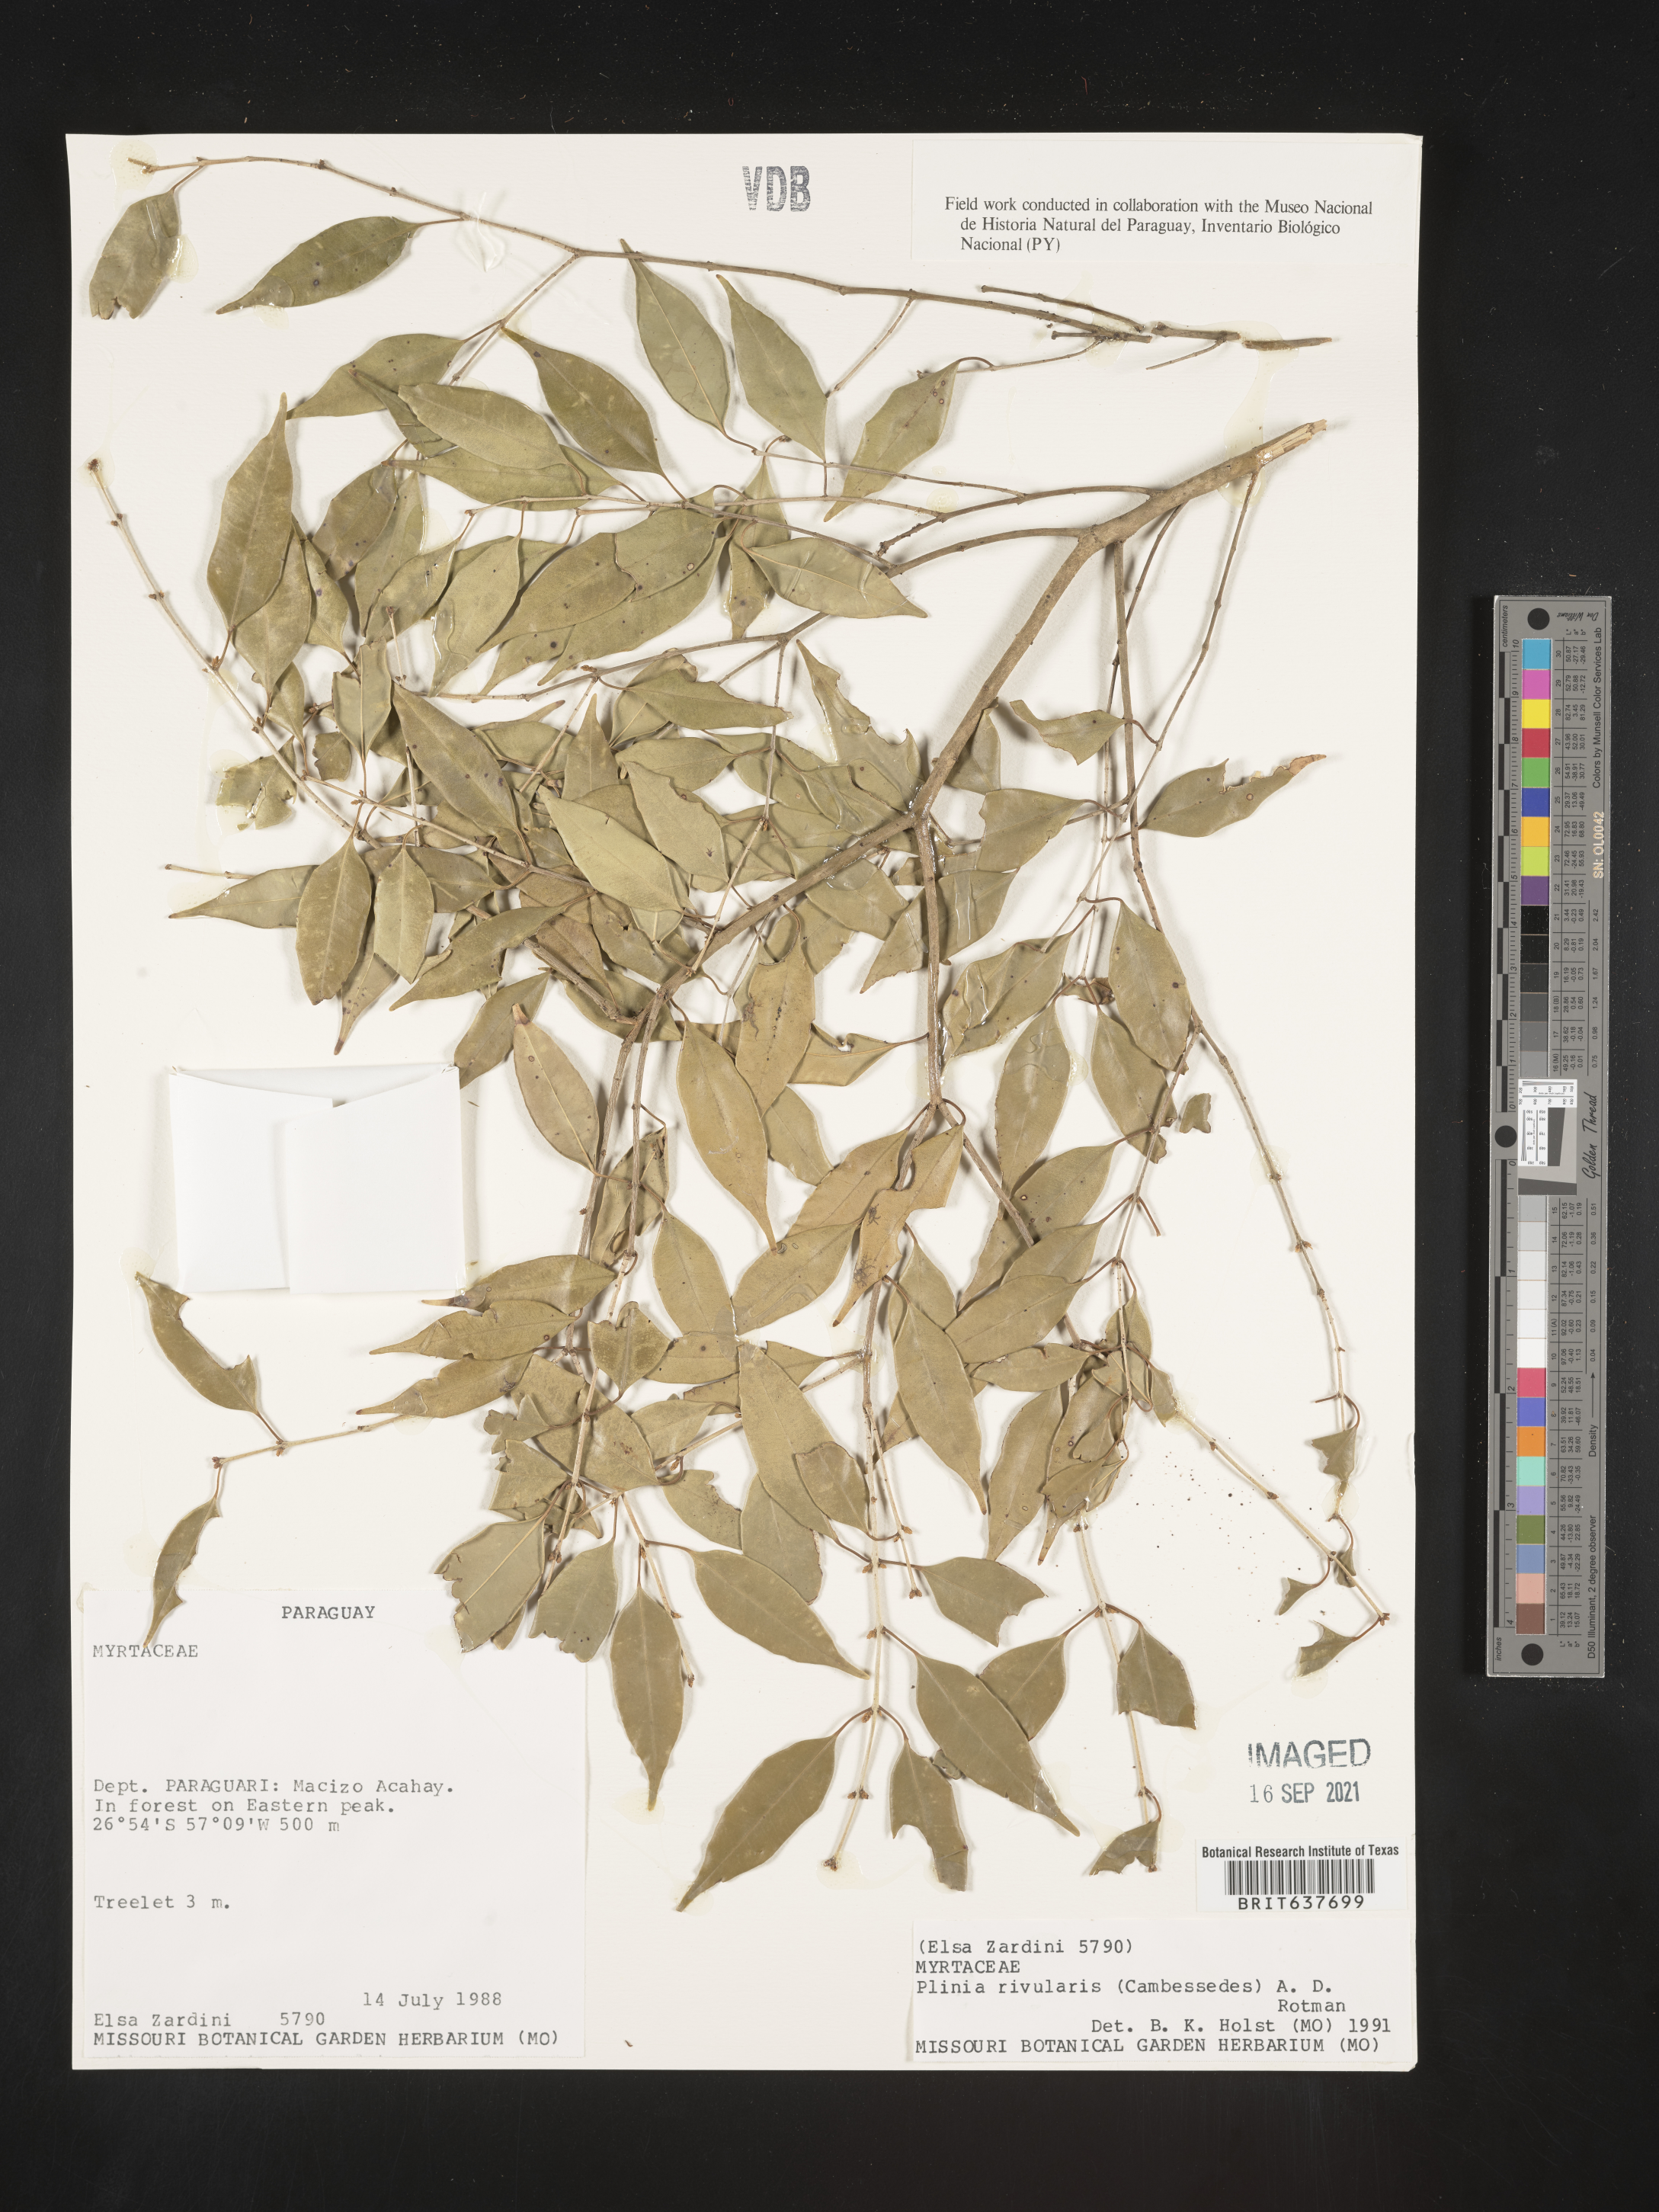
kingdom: Plantae
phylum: Tracheophyta
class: Magnoliopsida
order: Myrtales
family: Myrtaceae
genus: Plinia
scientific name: Plinia
